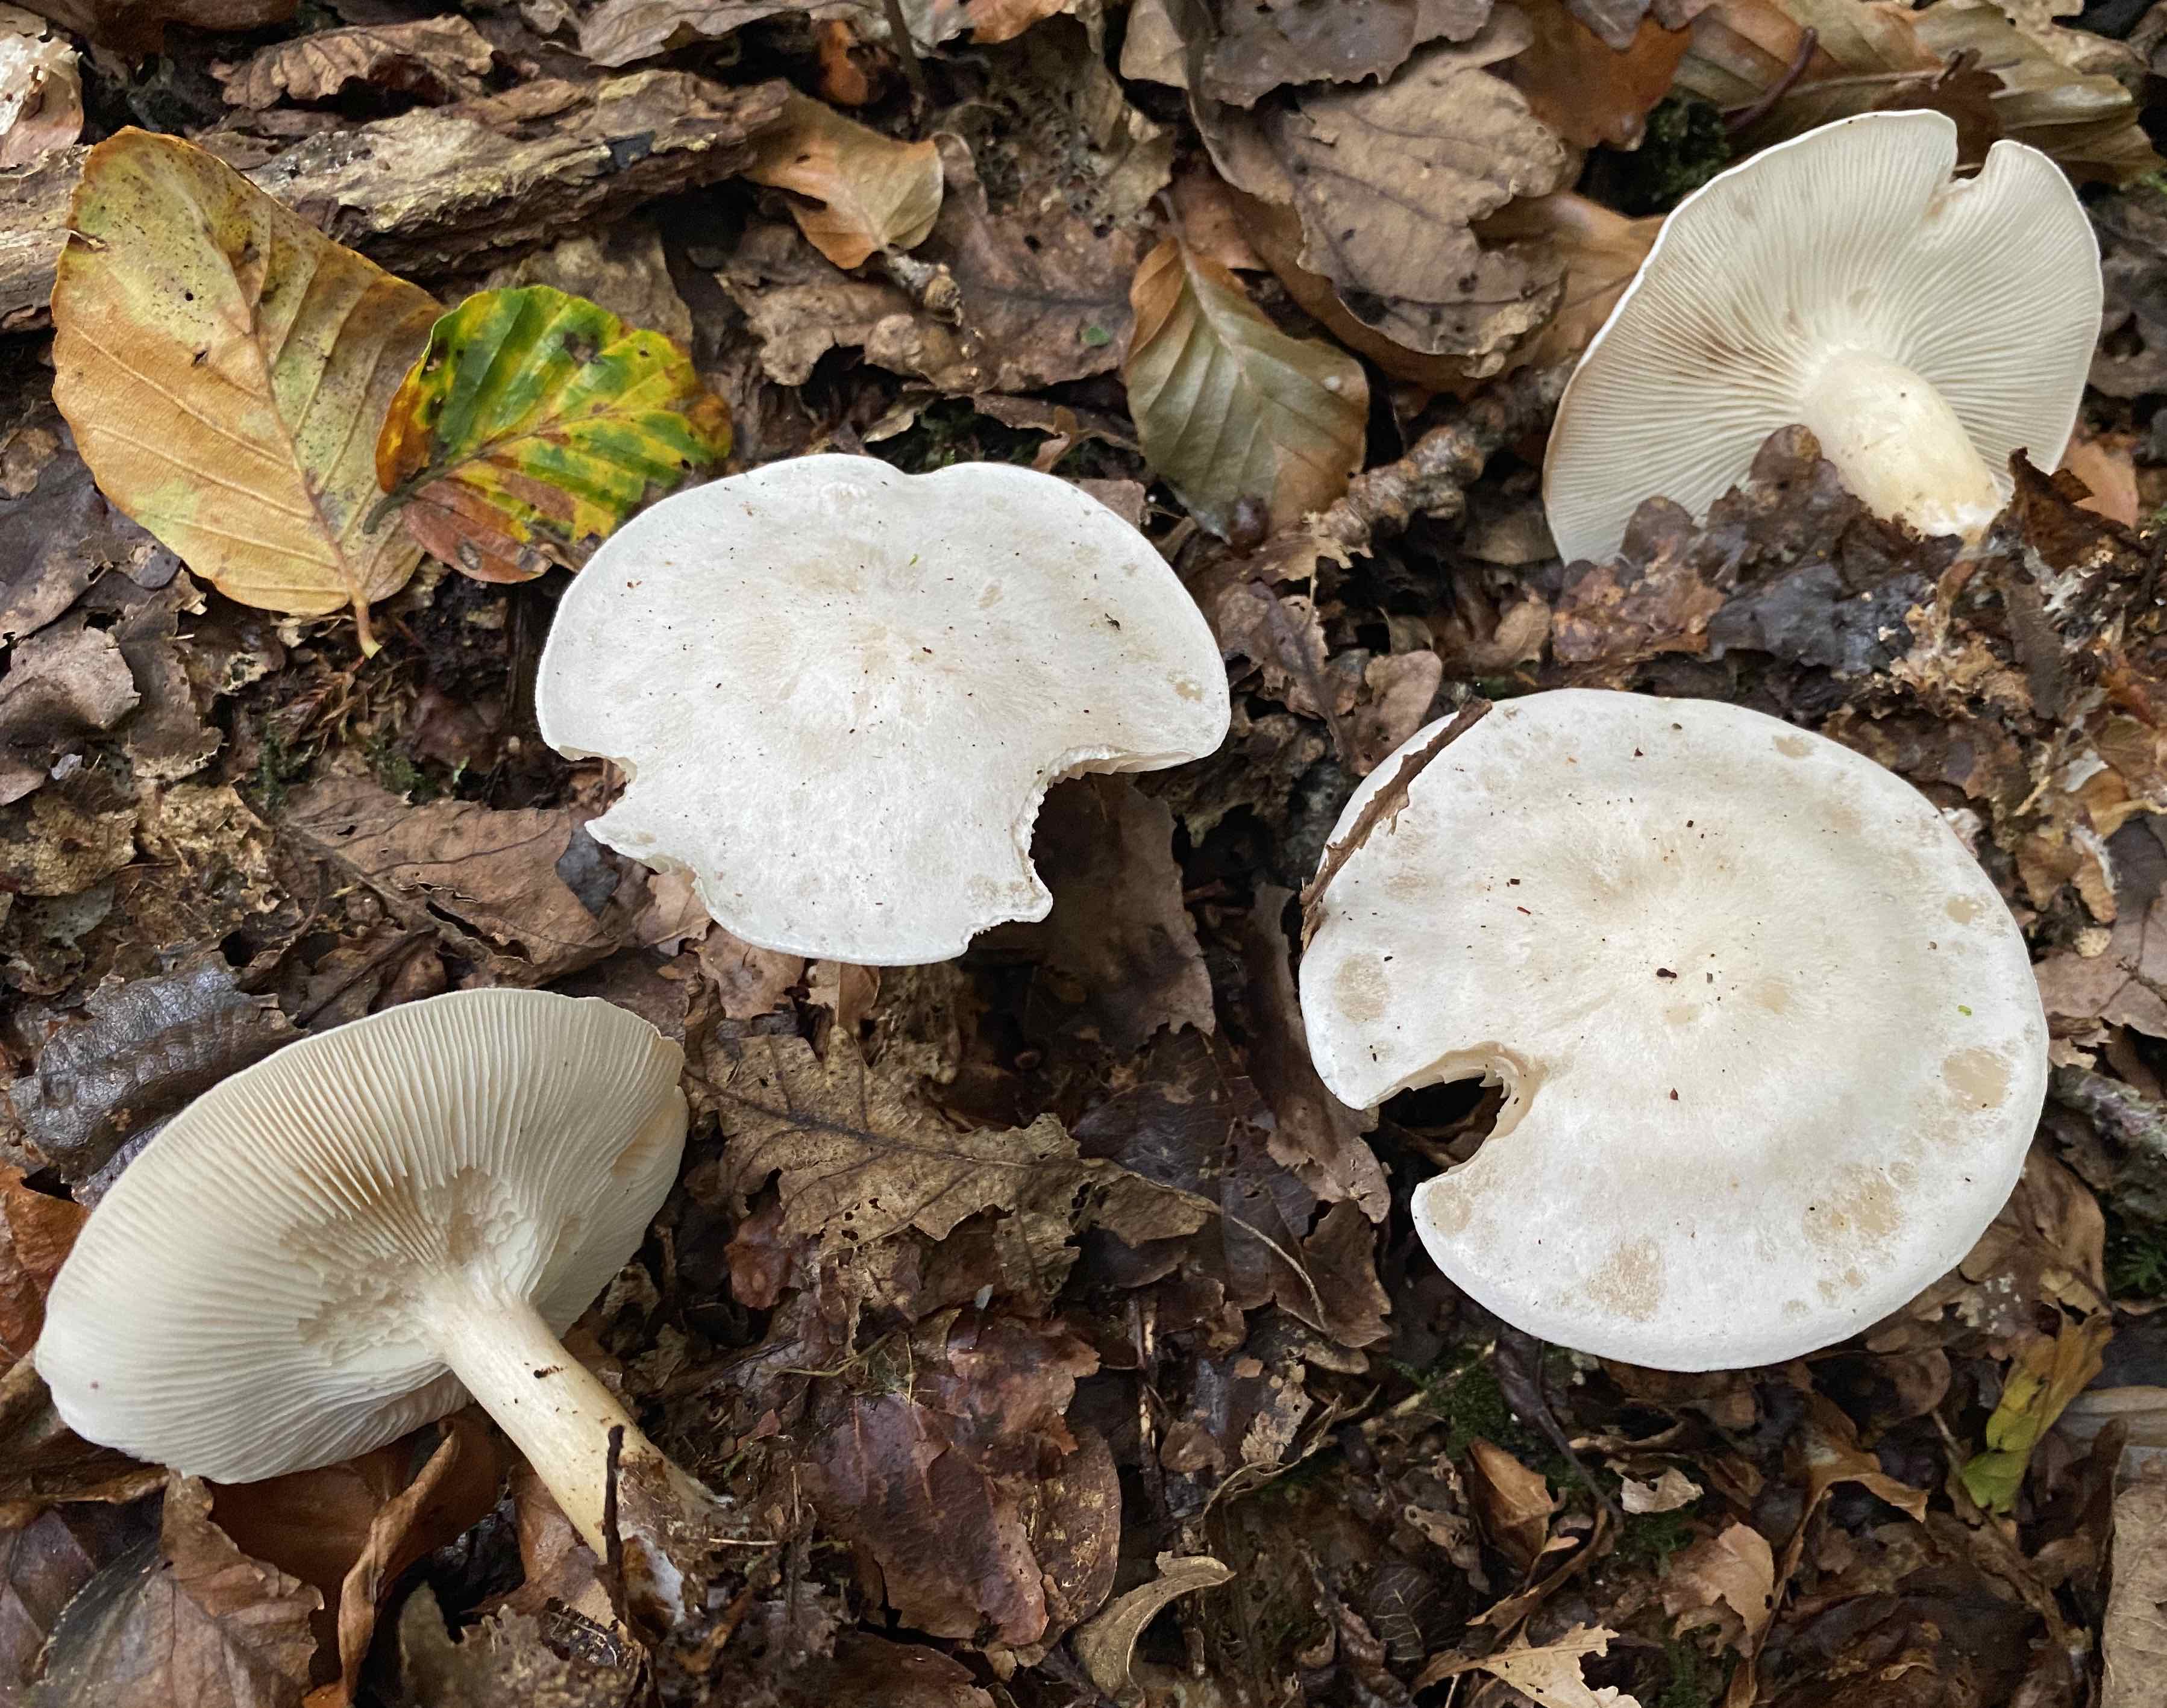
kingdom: Fungi
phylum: Basidiomycota
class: Agaricomycetes
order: Agaricales
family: Tricholomataceae
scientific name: Tricholomataceae
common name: ridderhatfamilien
